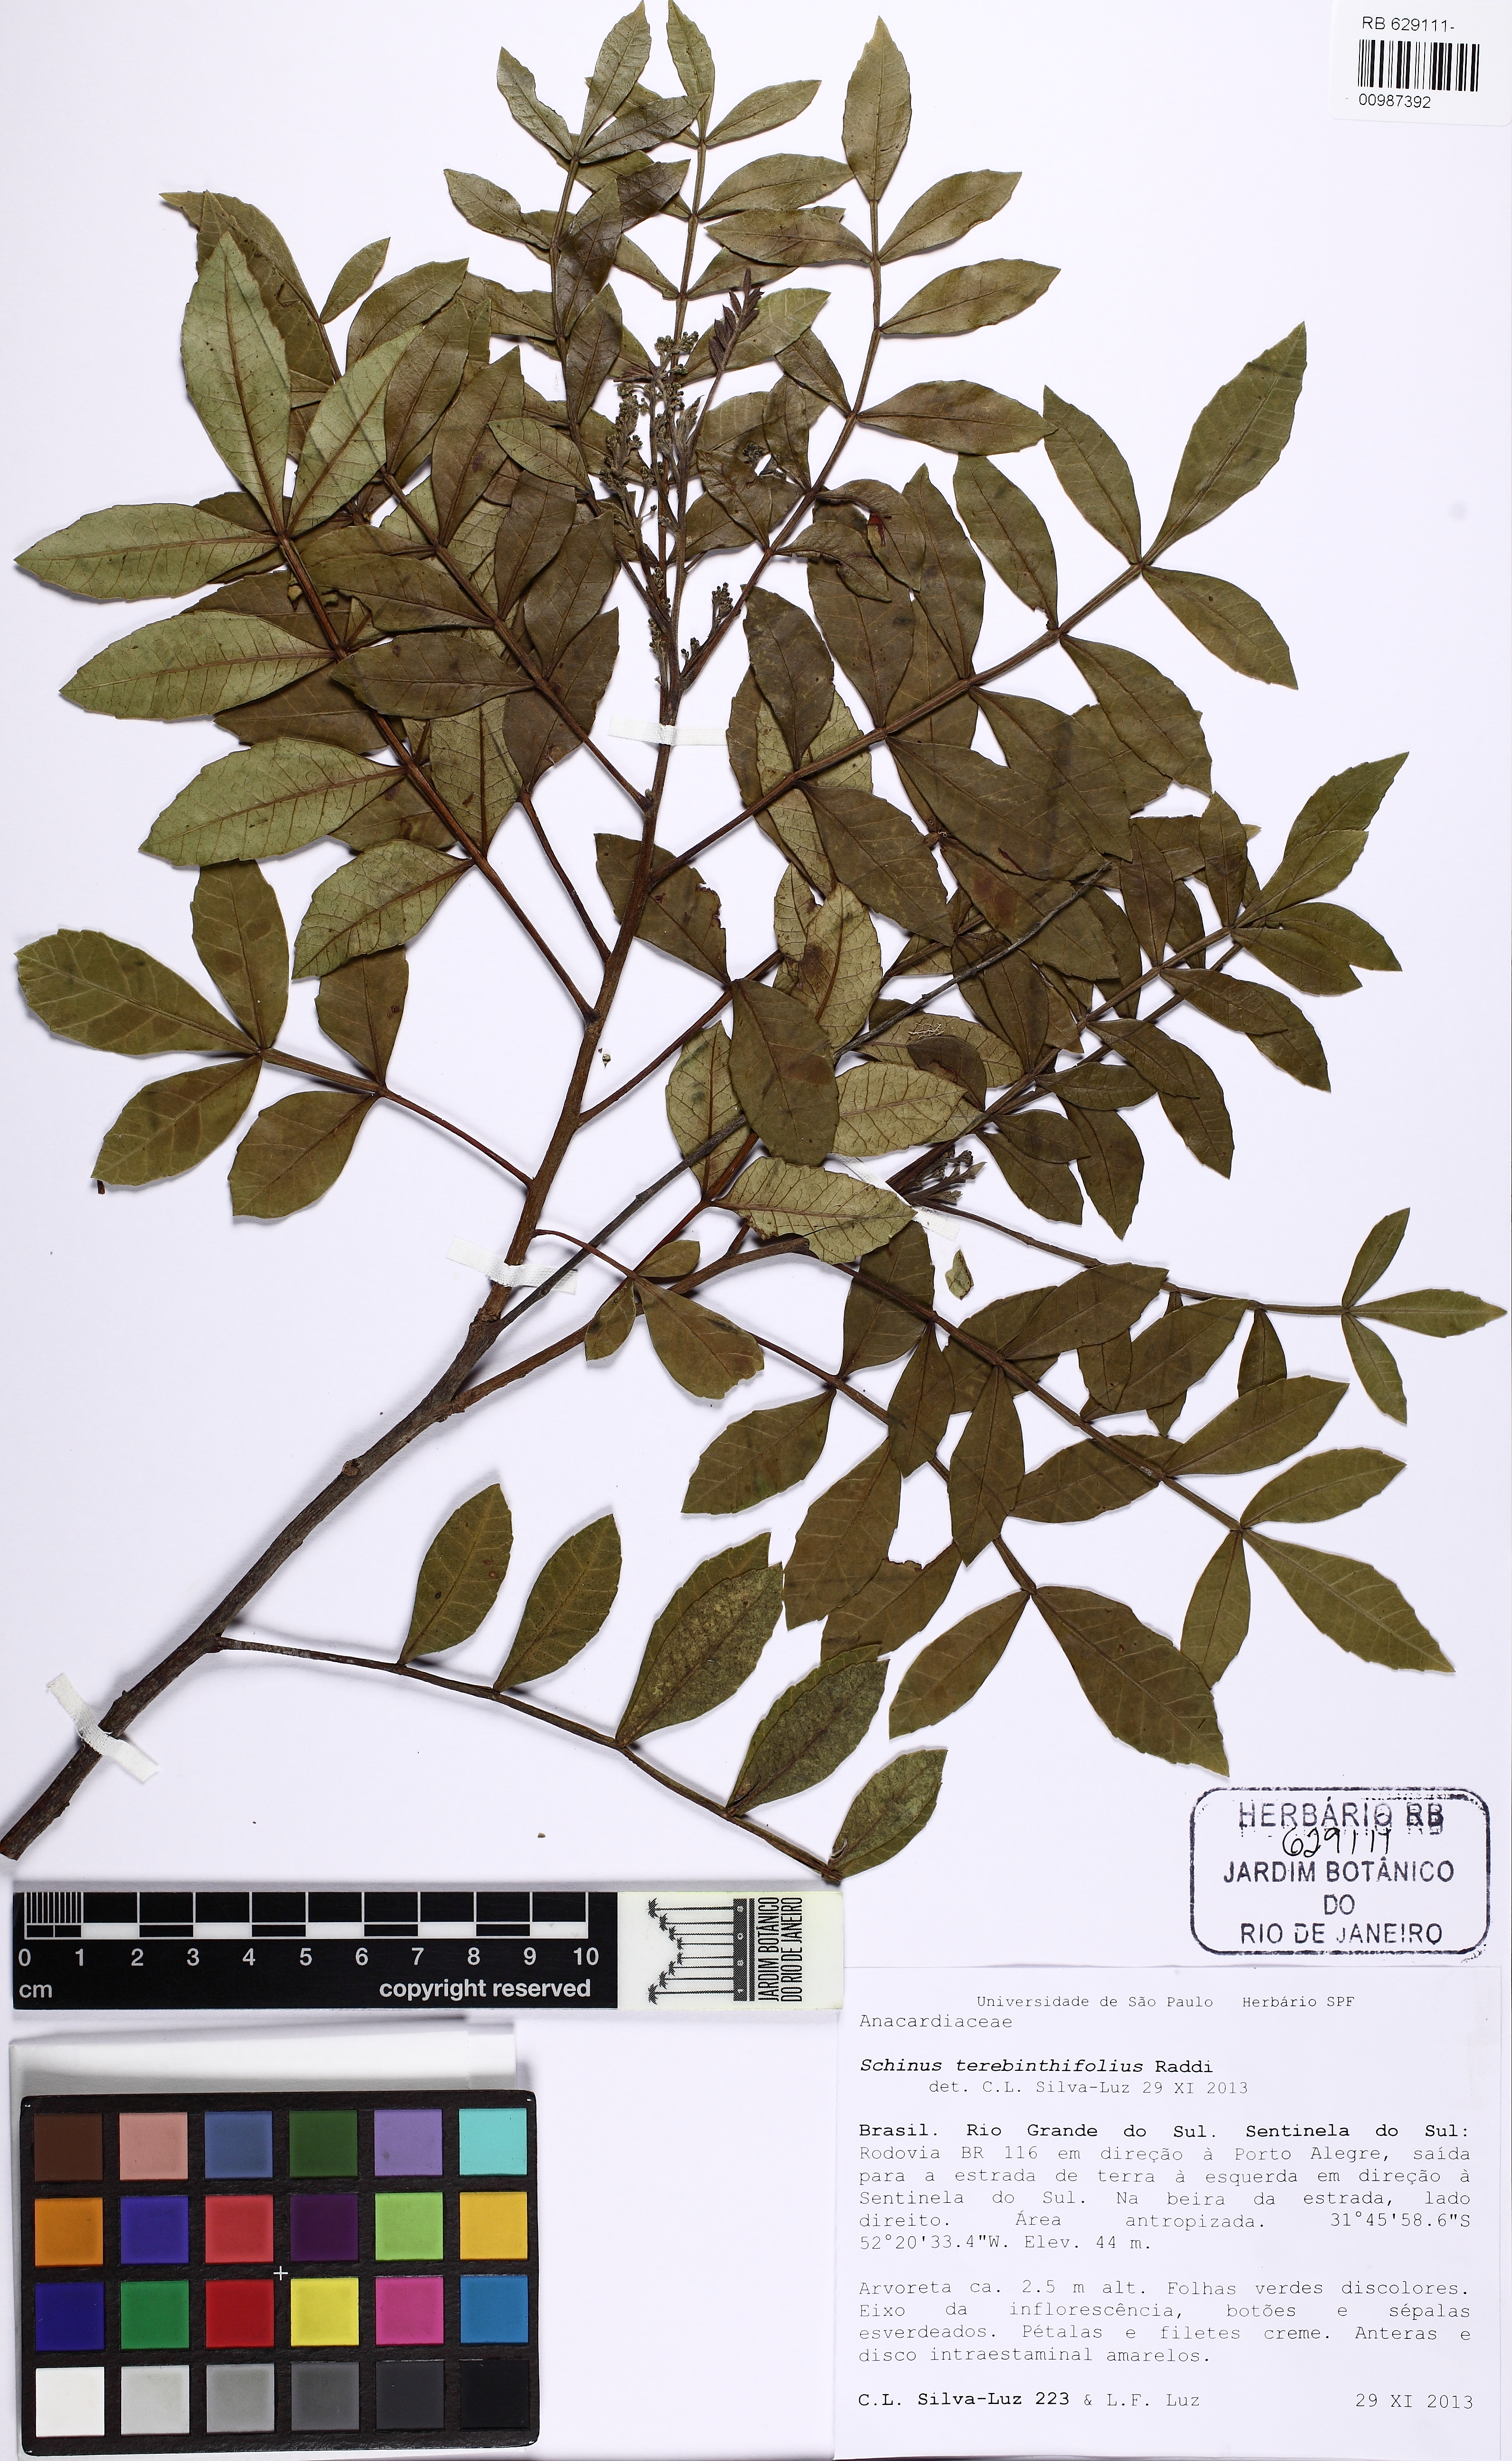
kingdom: Plantae
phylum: Tracheophyta
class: Magnoliopsida
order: Sapindales
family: Anacardiaceae
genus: Schinus
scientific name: Schinus terebinthifolia
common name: Brazilian peppertree
